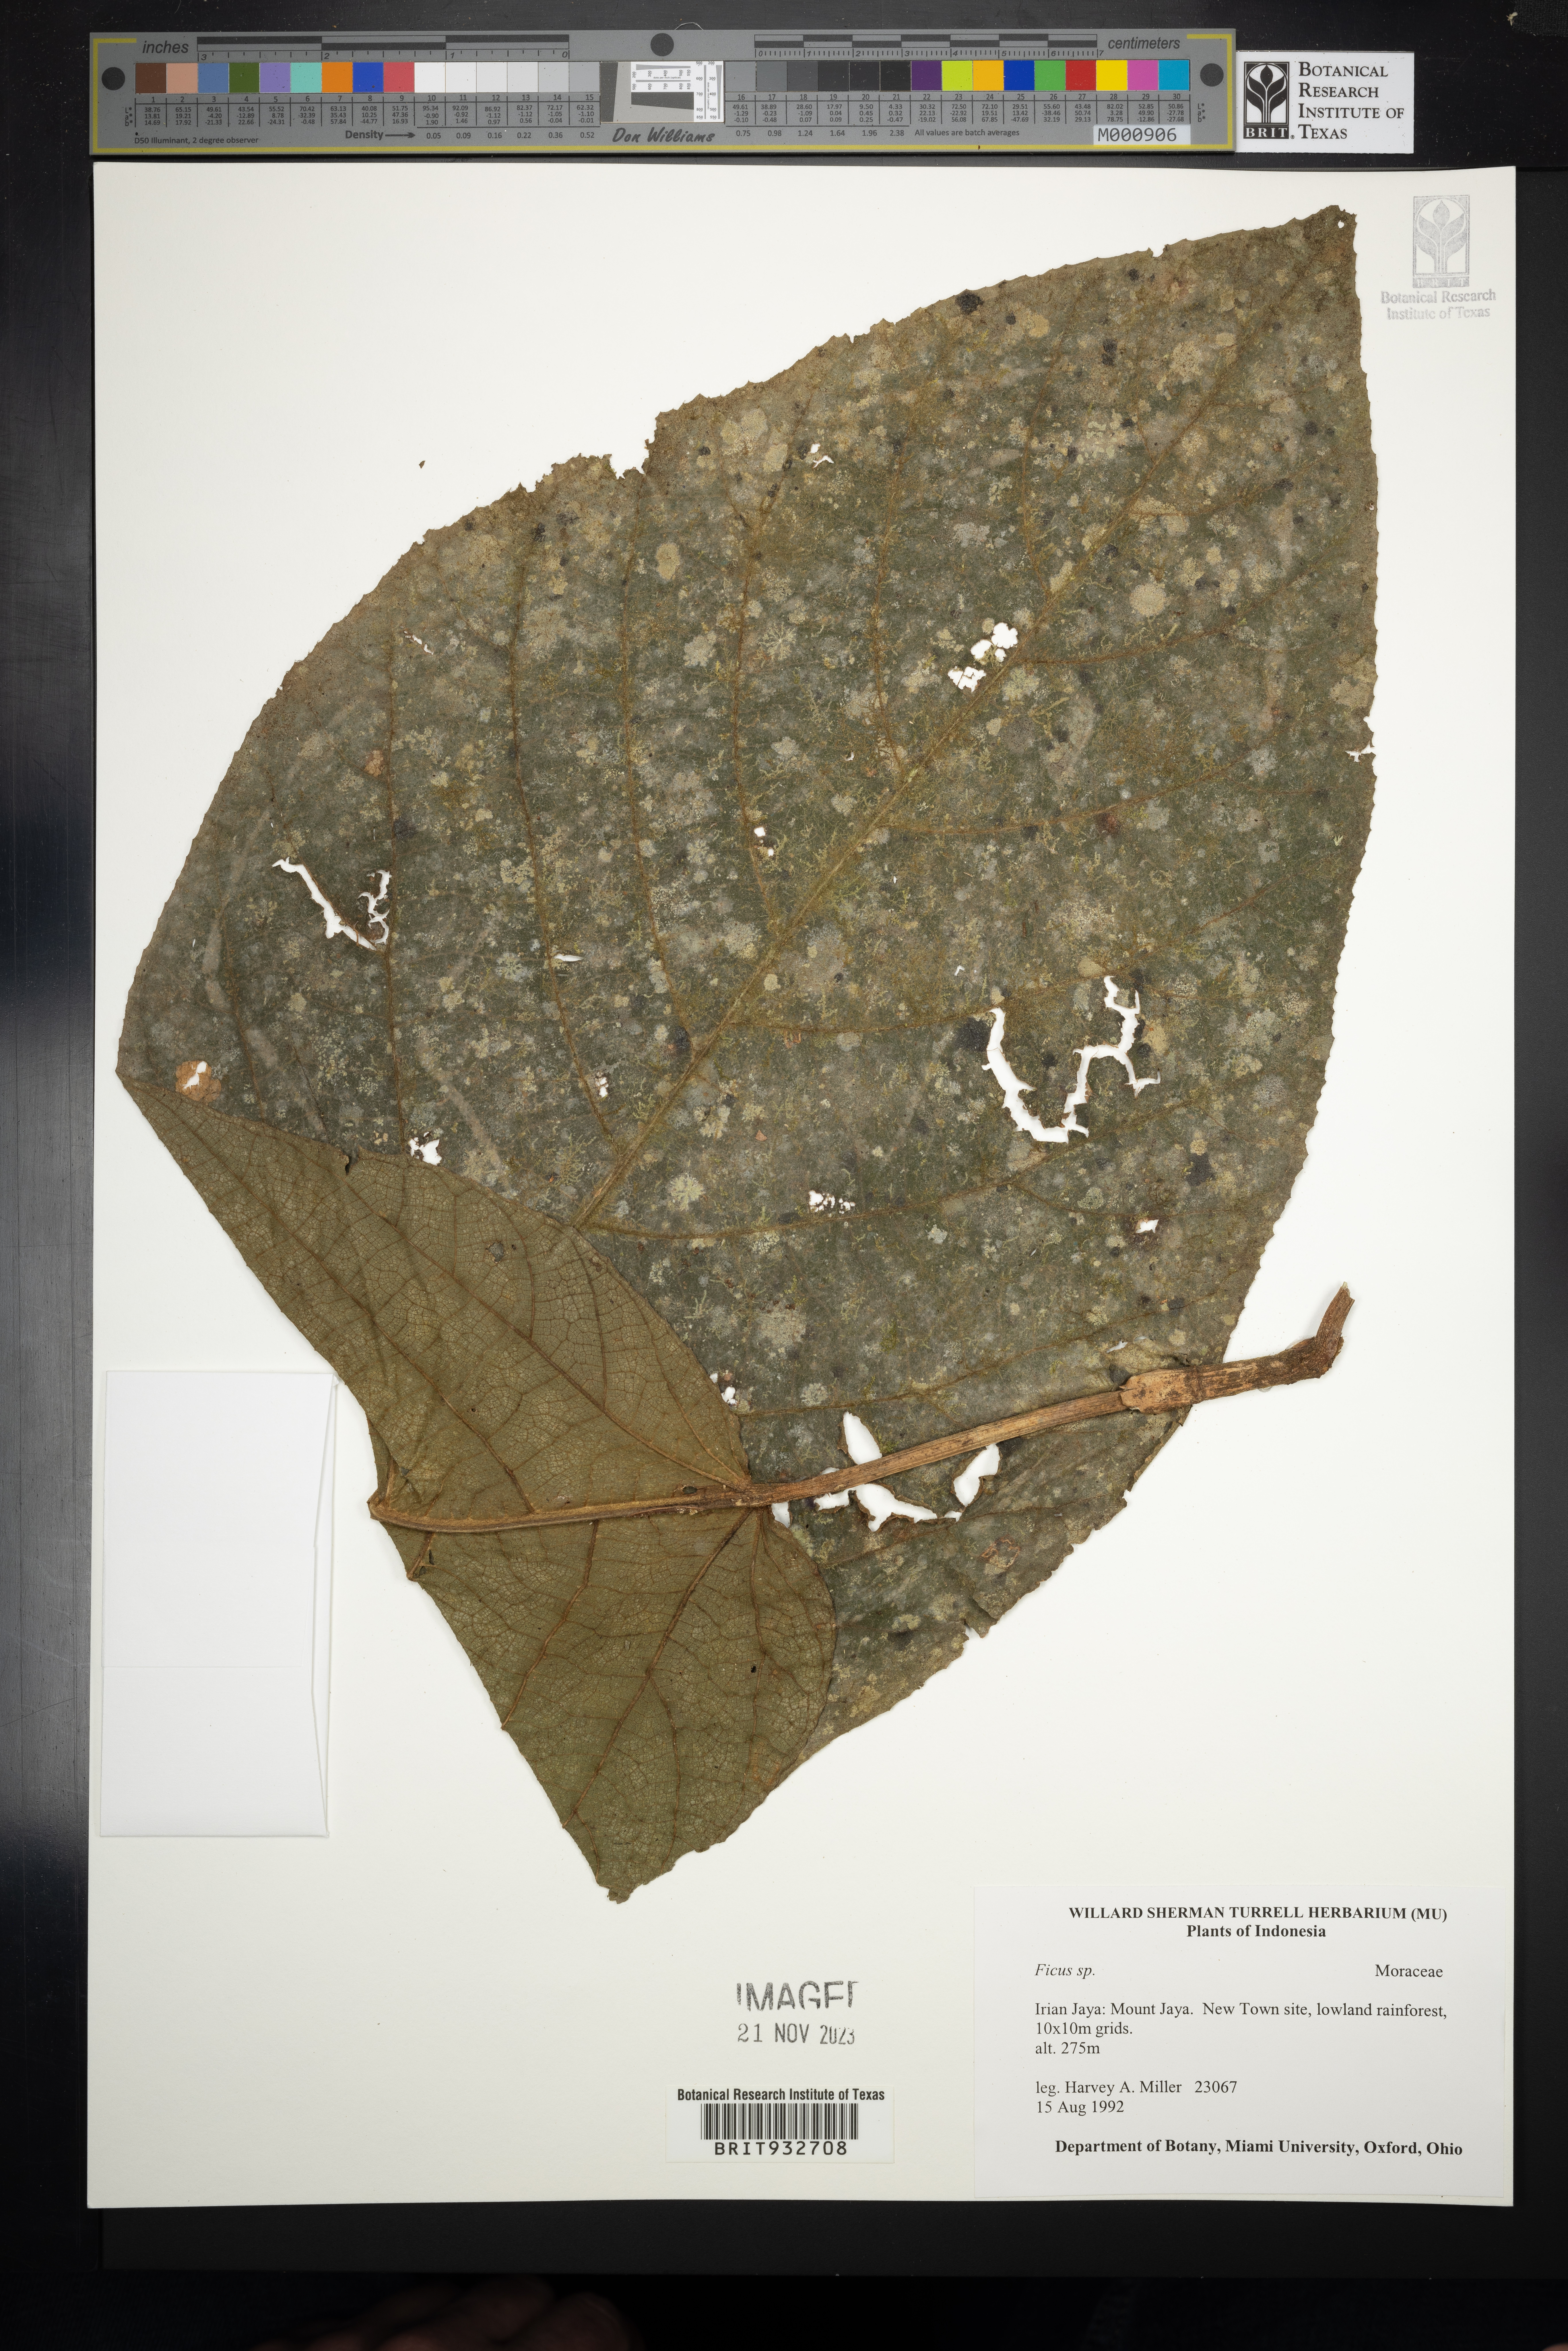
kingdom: Plantae
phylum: Tracheophyta
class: Magnoliopsida
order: Rosales
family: Moraceae
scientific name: Moraceae
